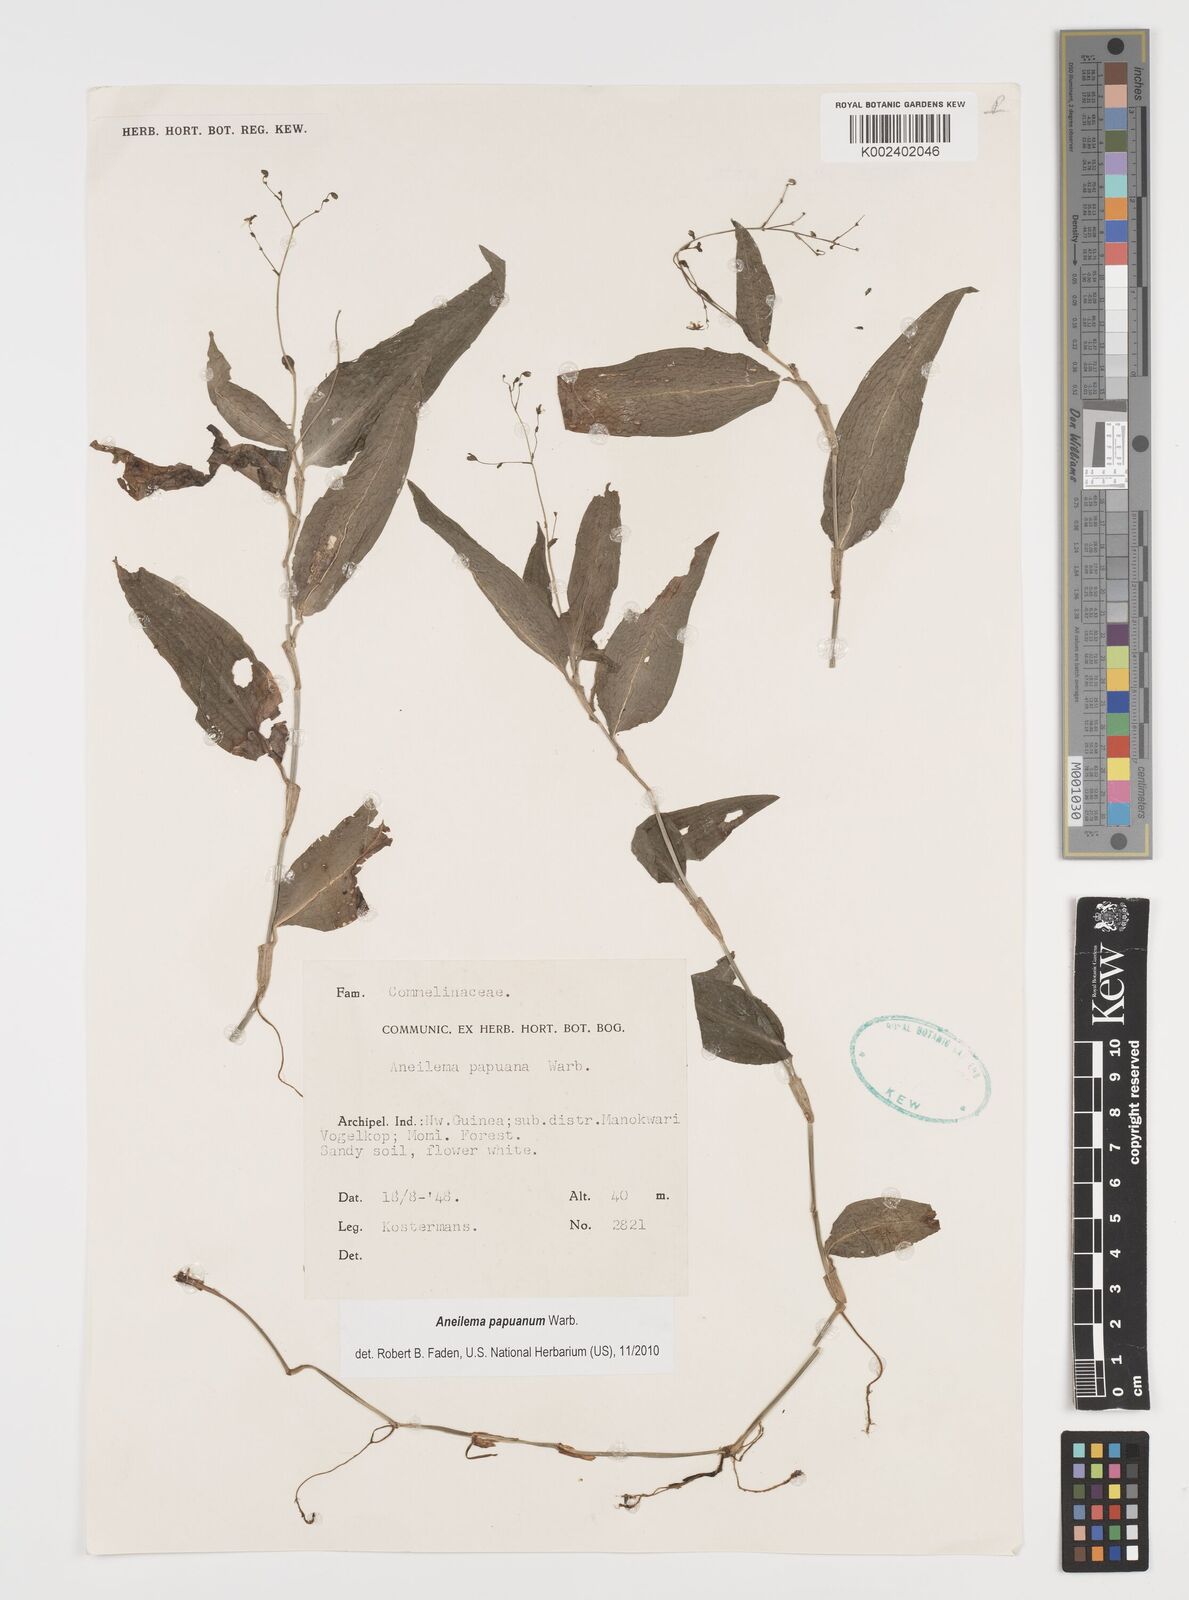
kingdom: Plantae
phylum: Tracheophyta
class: Liliopsida
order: Commelinales
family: Commelinaceae
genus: Aneilema
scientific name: Aneilema acuminatum
